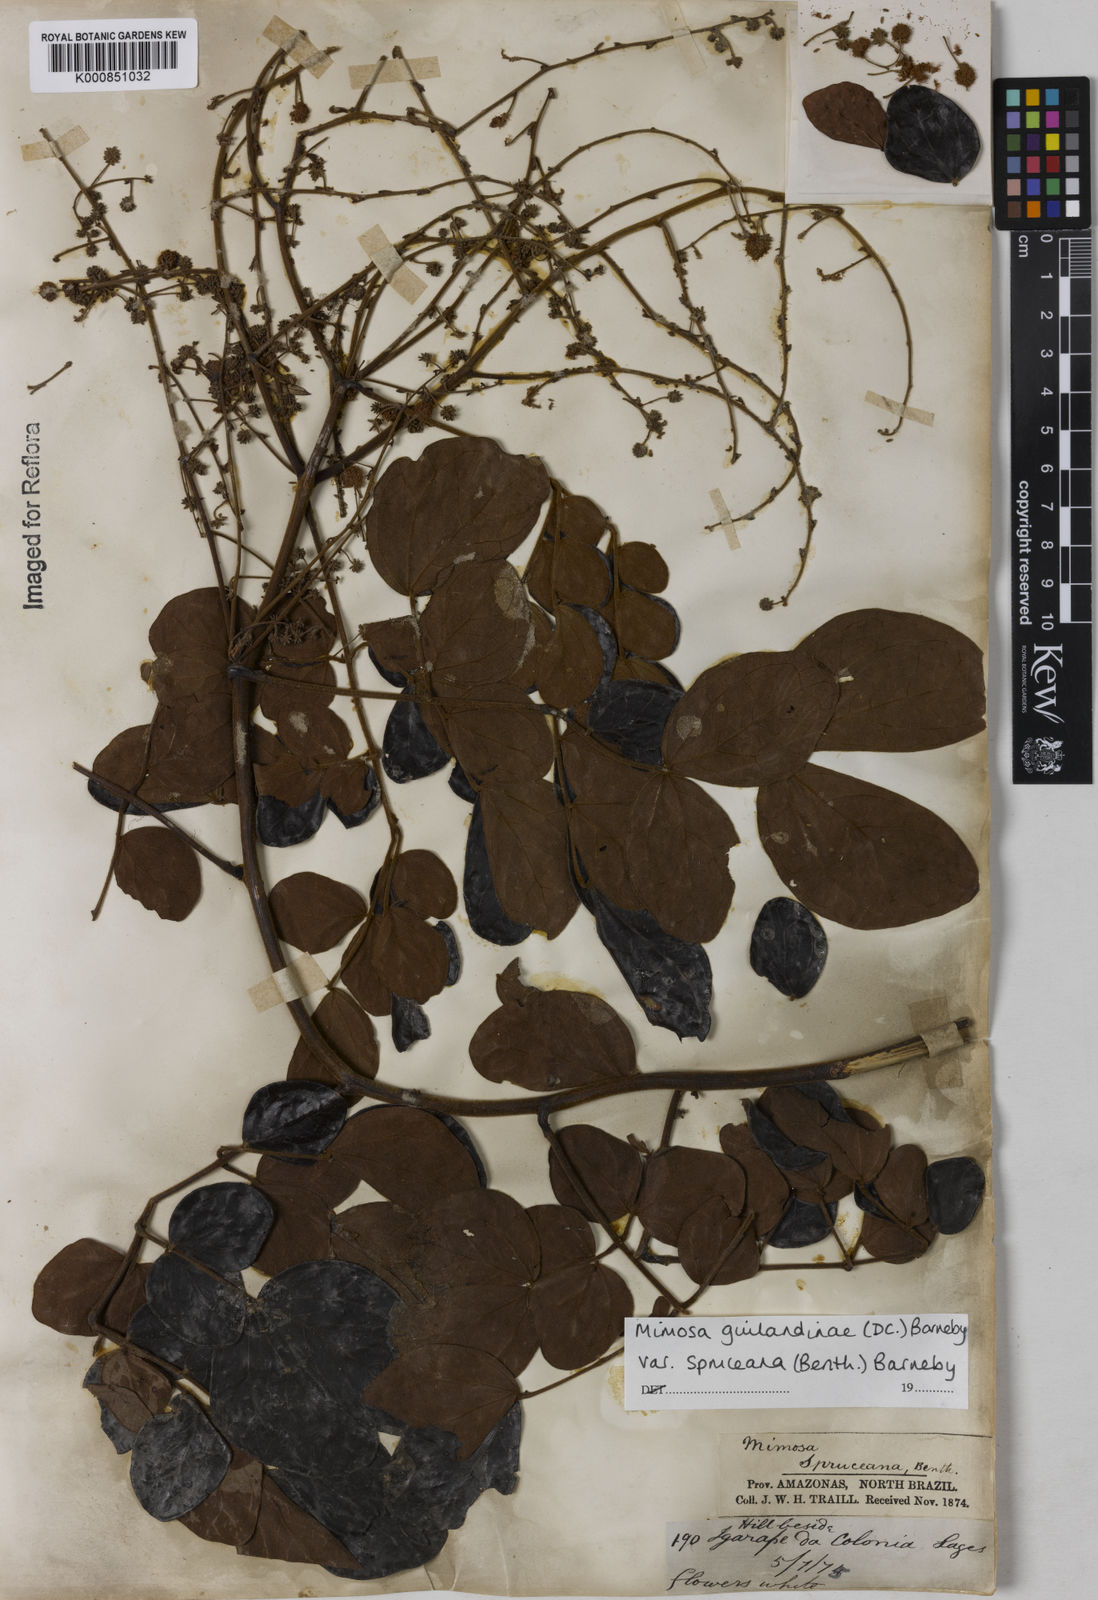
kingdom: Plantae
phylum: Tracheophyta
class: Magnoliopsida
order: Fabales
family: Fabaceae
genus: Mimosa
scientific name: Mimosa guilandinae
